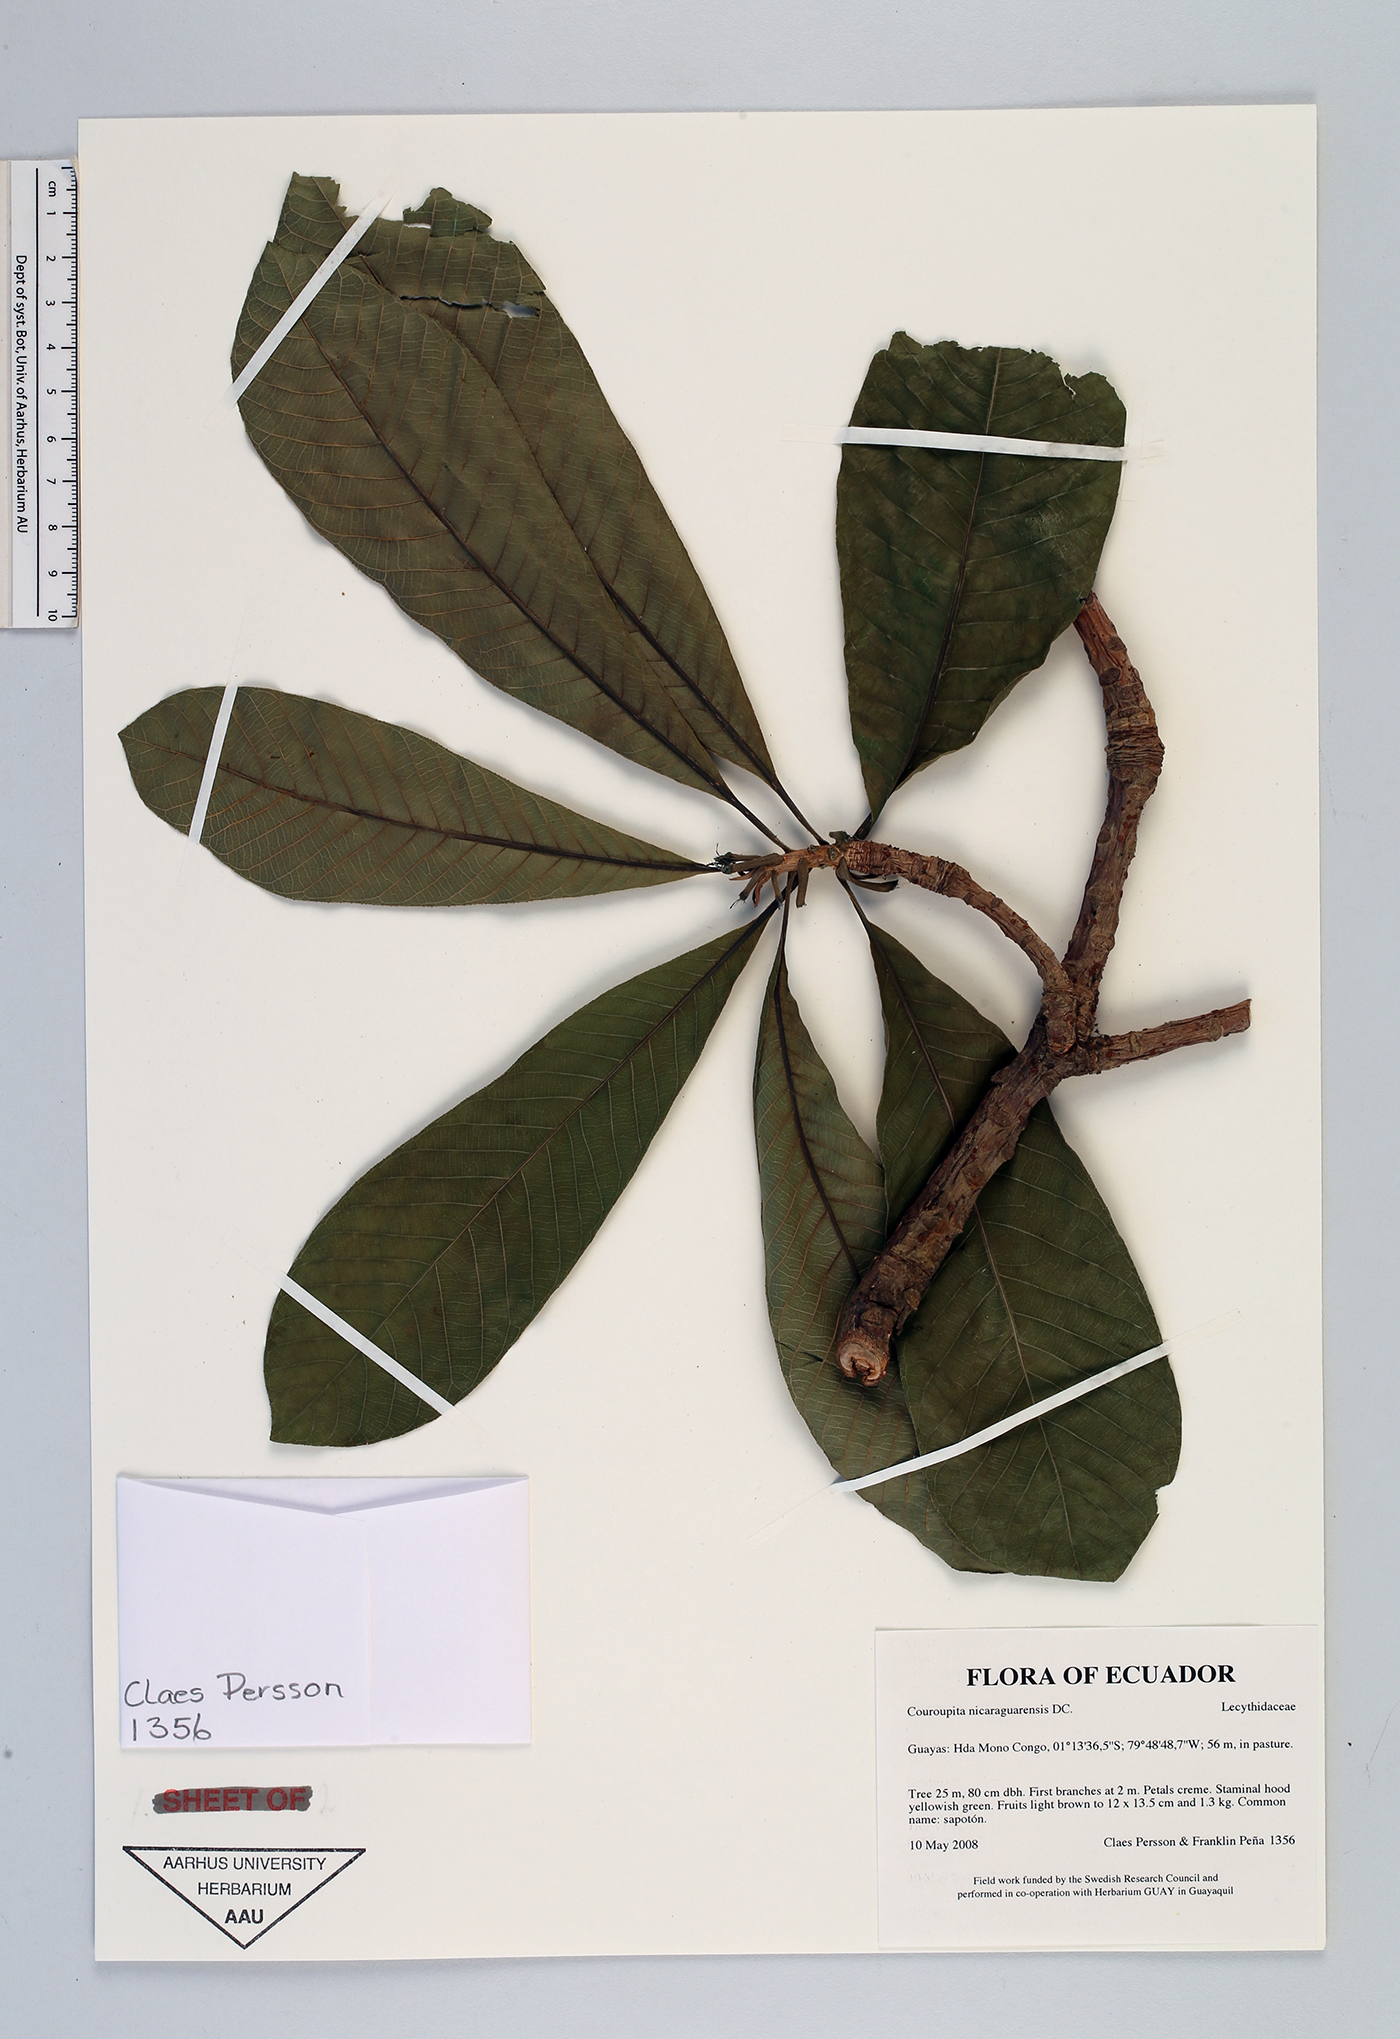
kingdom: Plantae
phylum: Tracheophyta
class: Magnoliopsida
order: Ericales
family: Lecythidaceae
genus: Couroupita
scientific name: Couroupita nicaraguarensis
